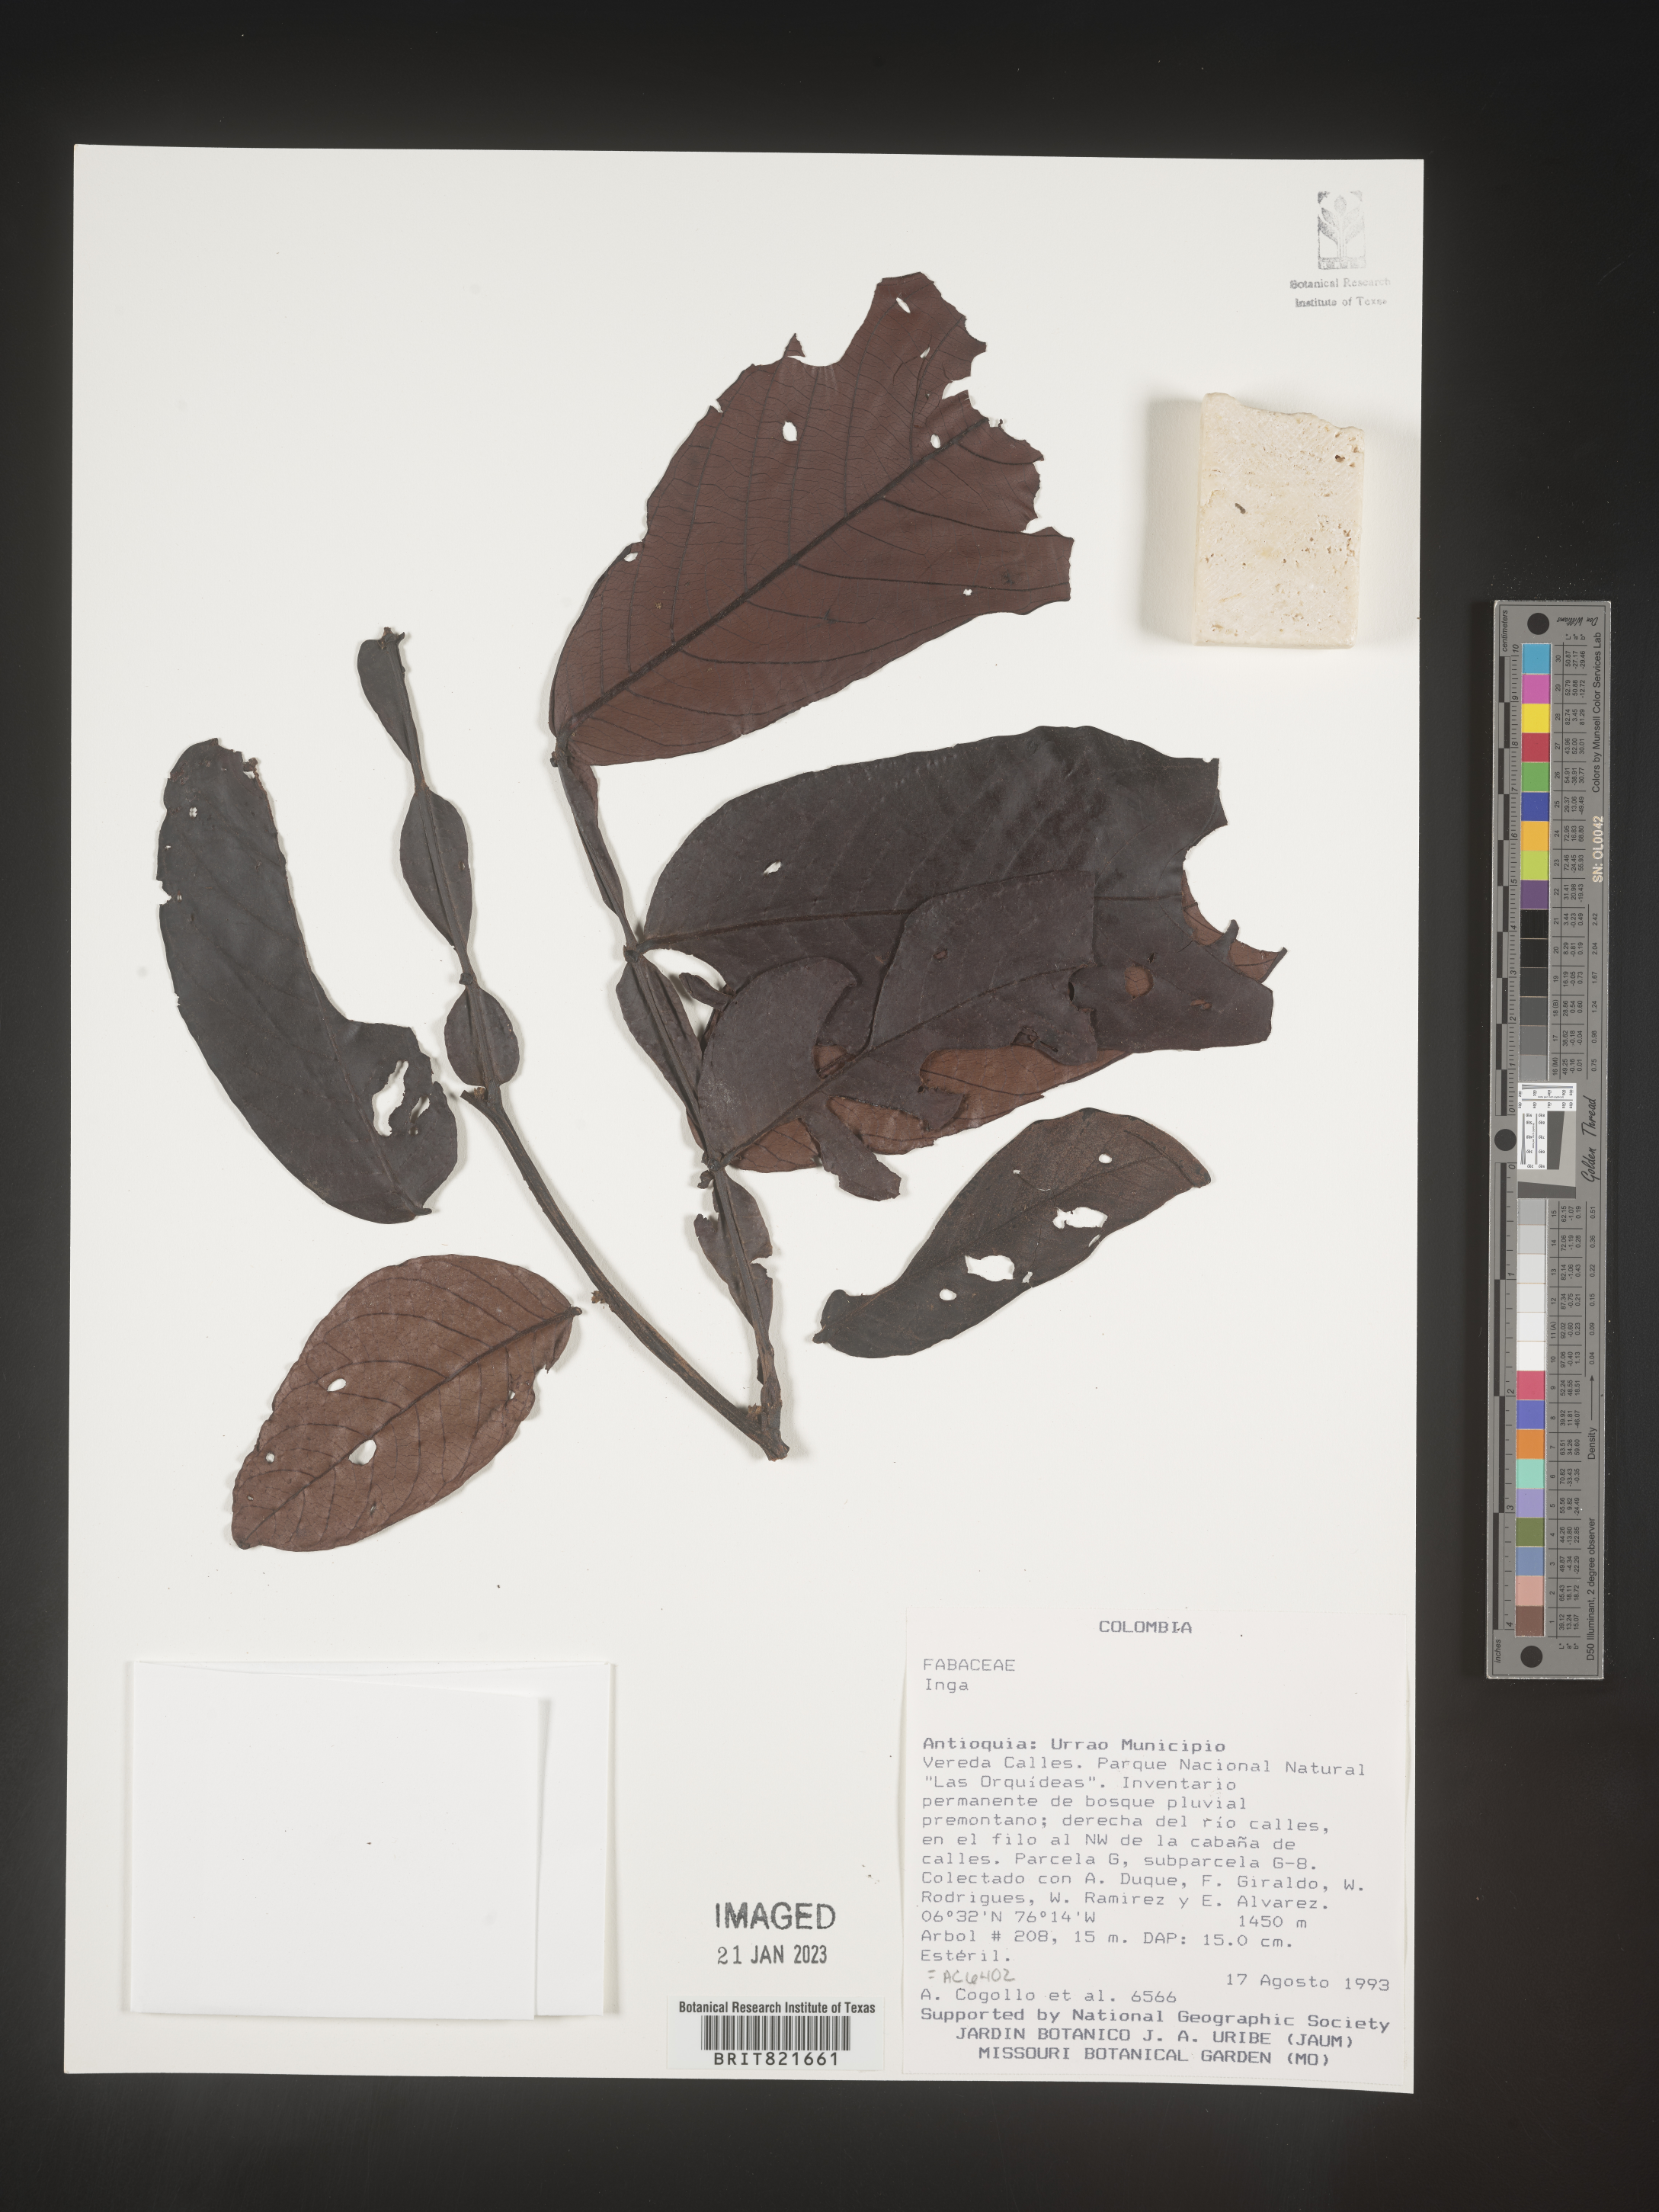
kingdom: Plantae
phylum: Tracheophyta
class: Magnoliopsida
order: Fabales
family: Fabaceae
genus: Inga
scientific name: Inga
